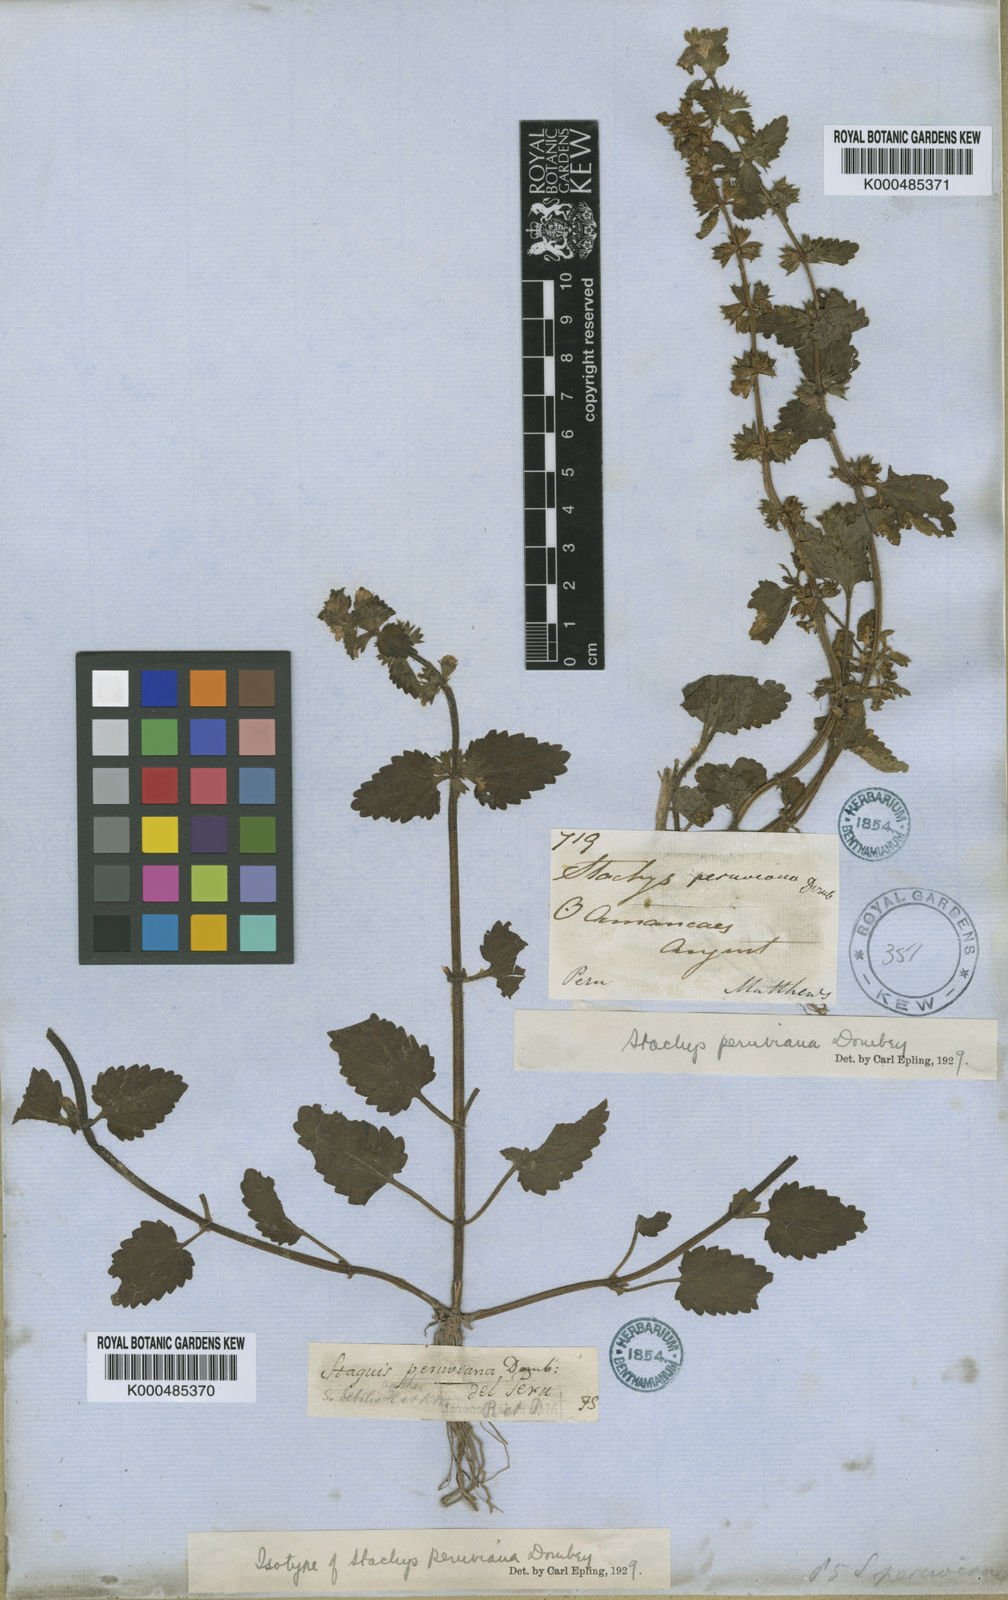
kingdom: Plantae
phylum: Tracheophyta
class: Magnoliopsida
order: Lamiales
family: Lamiaceae
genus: Stachys
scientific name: Stachys peruviana
